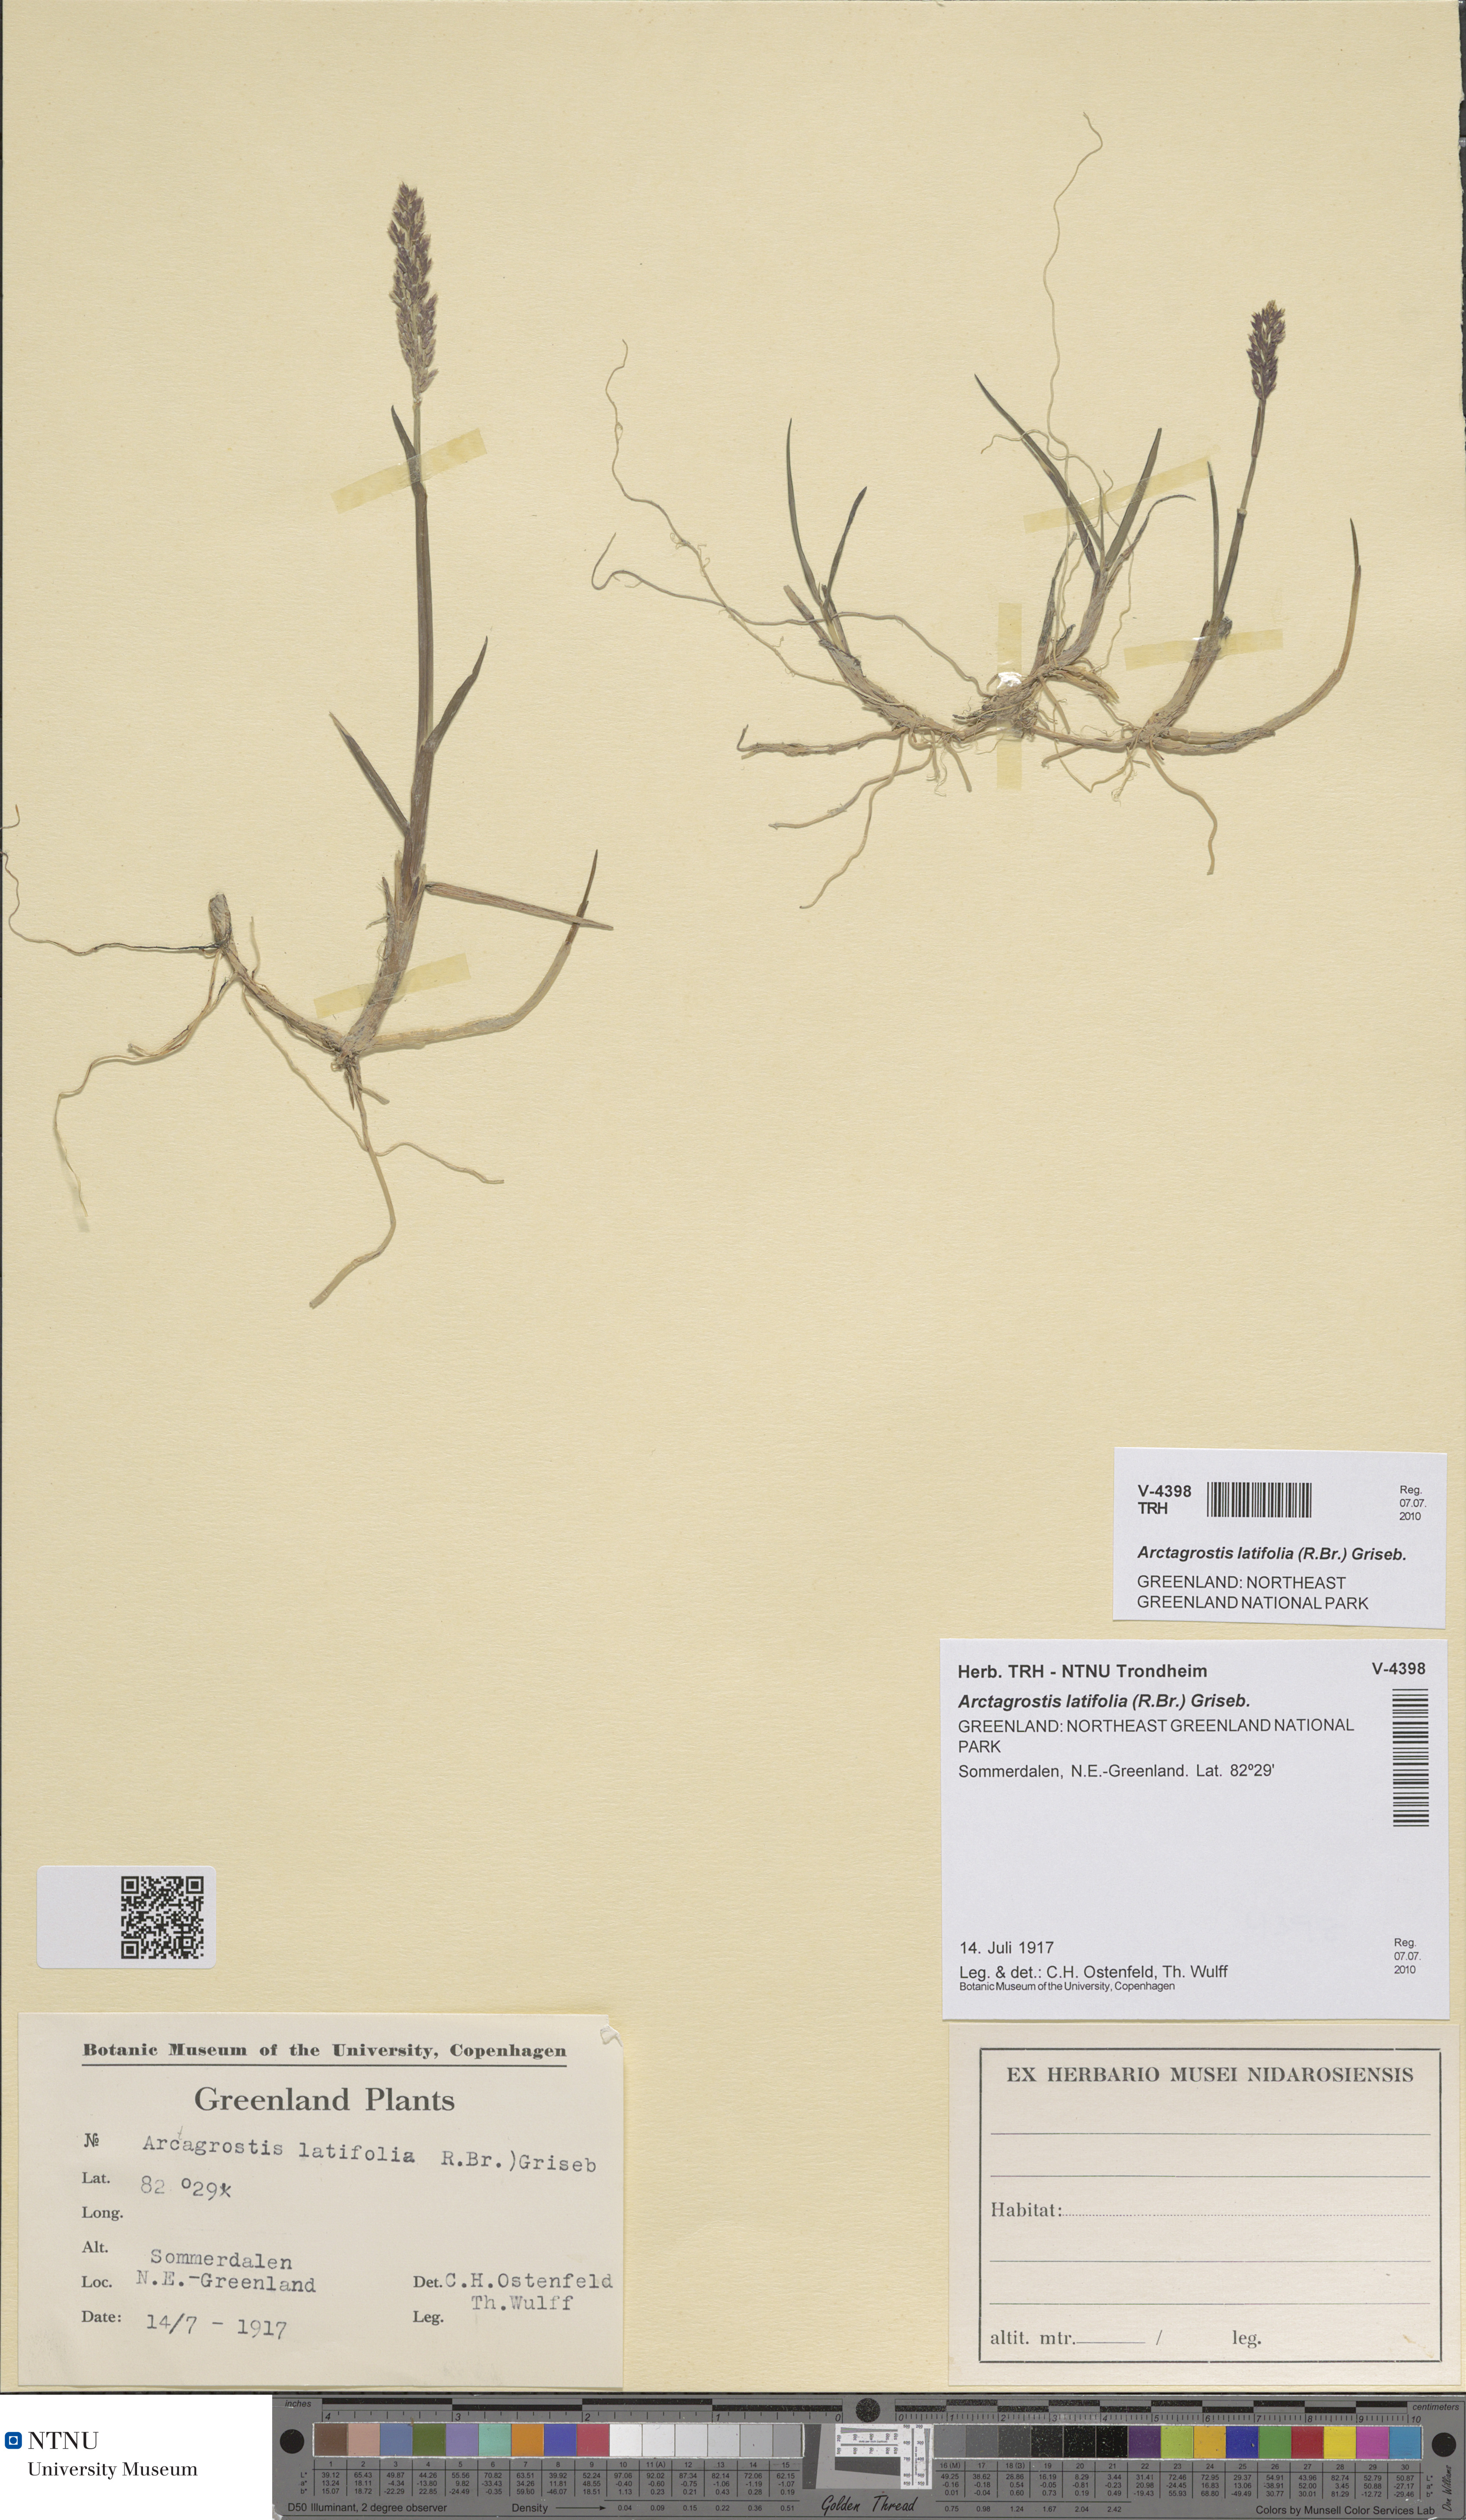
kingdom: Plantae
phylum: Tracheophyta
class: Liliopsida
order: Poales
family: Poaceae
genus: Arctagrostis
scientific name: Arctagrostis latifolia
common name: Arctic grass
